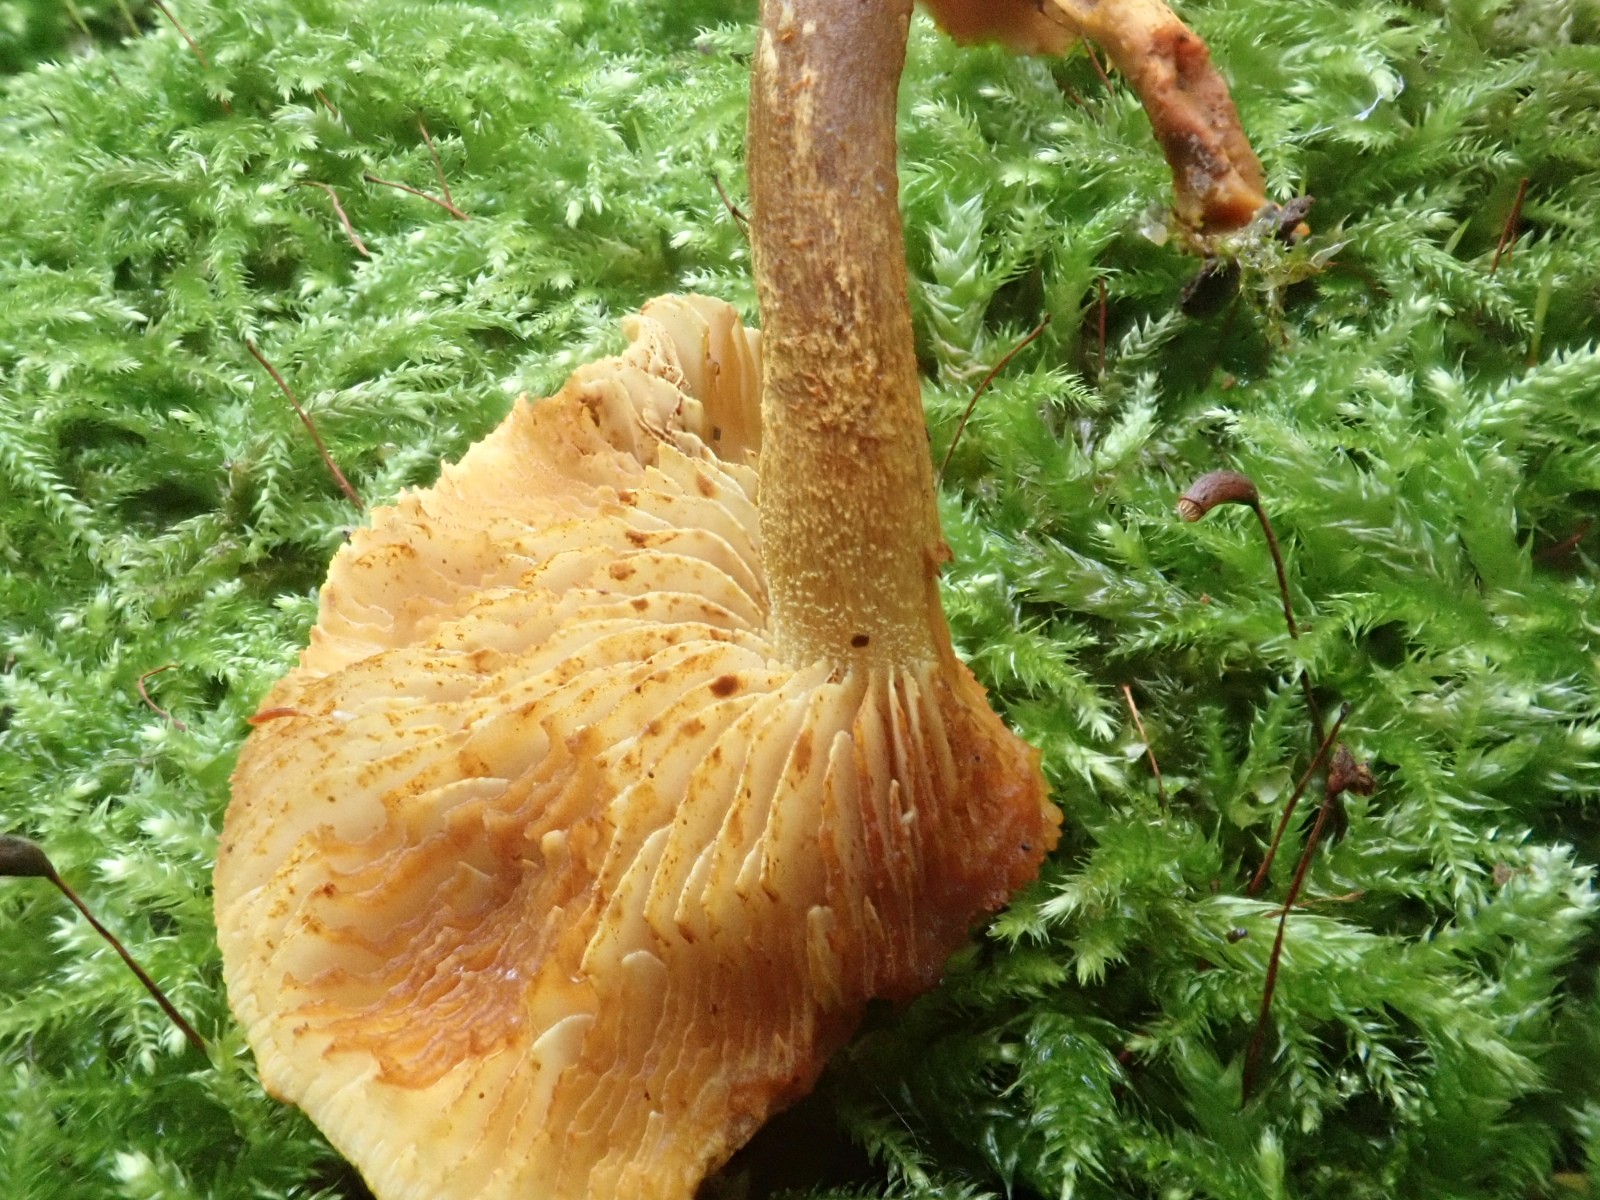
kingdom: Fungi
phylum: Basidiomycota
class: Agaricomycetes
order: Agaricales
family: Strophariaceae
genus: Pholiota
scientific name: Pholiota tuberculosa
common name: finskællet skælhat
